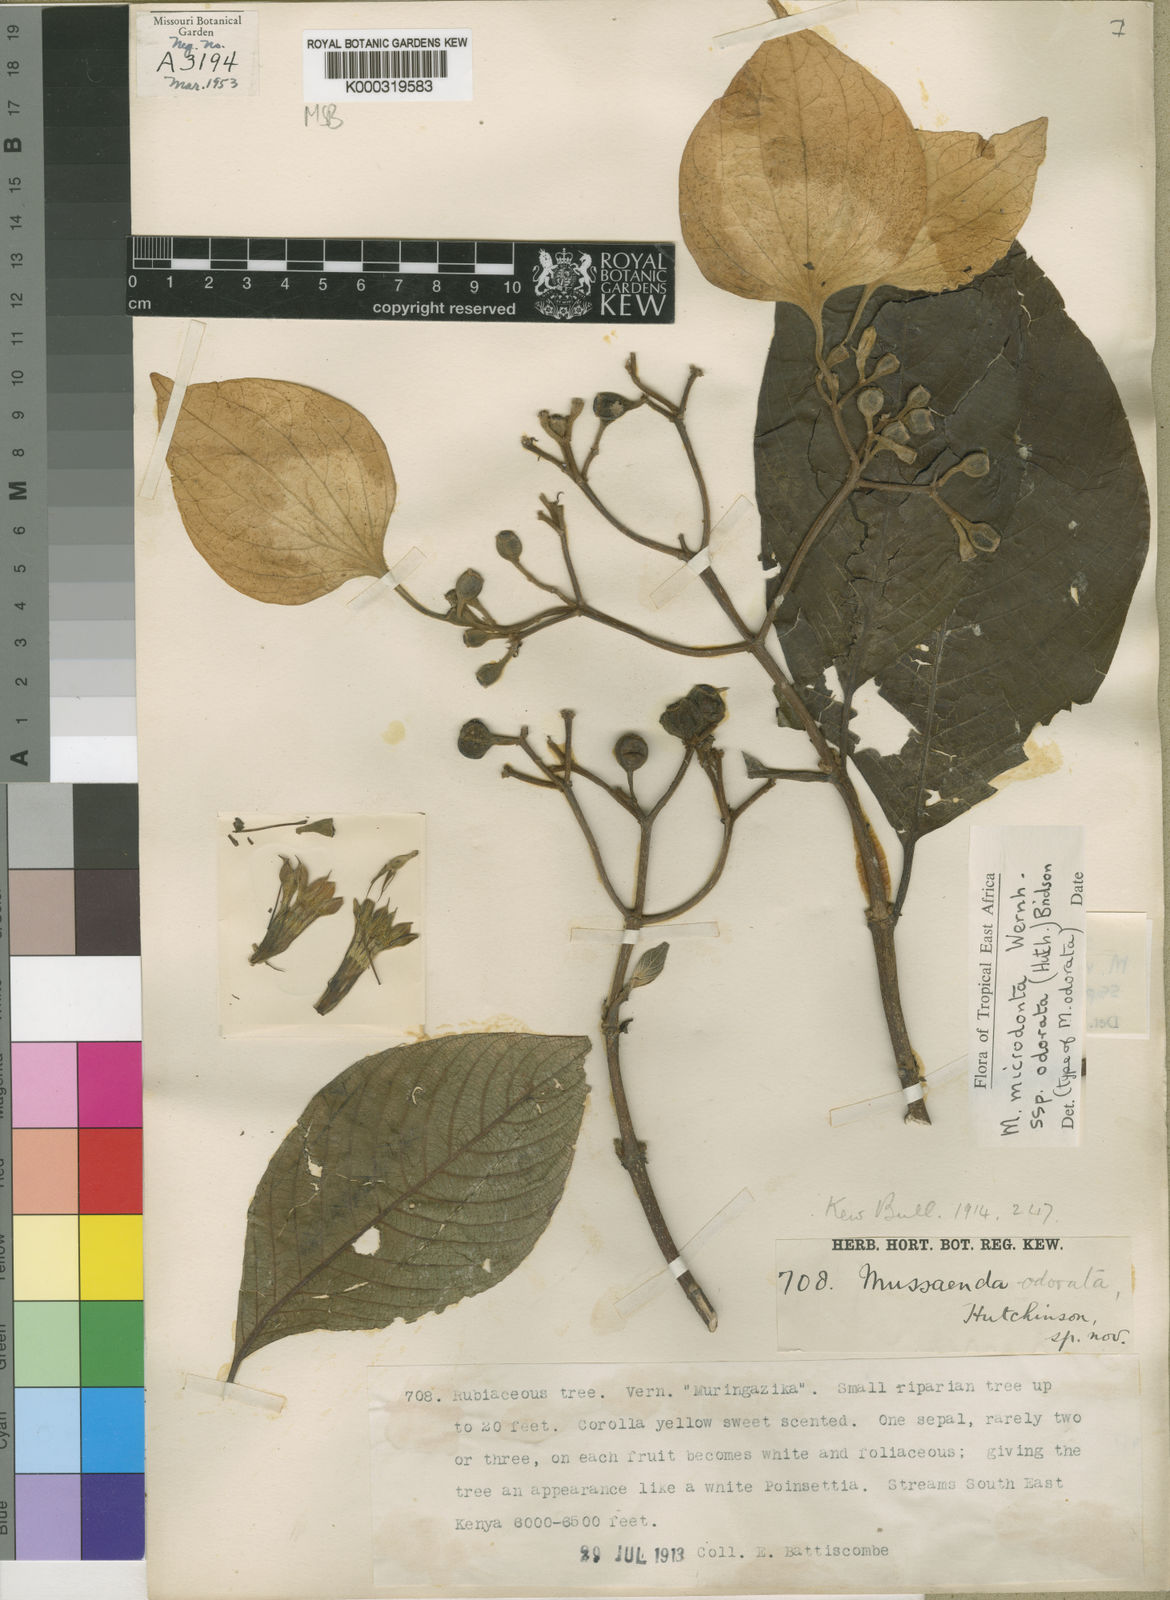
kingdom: Plantae
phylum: Tracheophyta
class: Magnoliopsida
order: Gentianales
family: Rubiaceae
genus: Mussaenda
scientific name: Mussaenda microdonta
